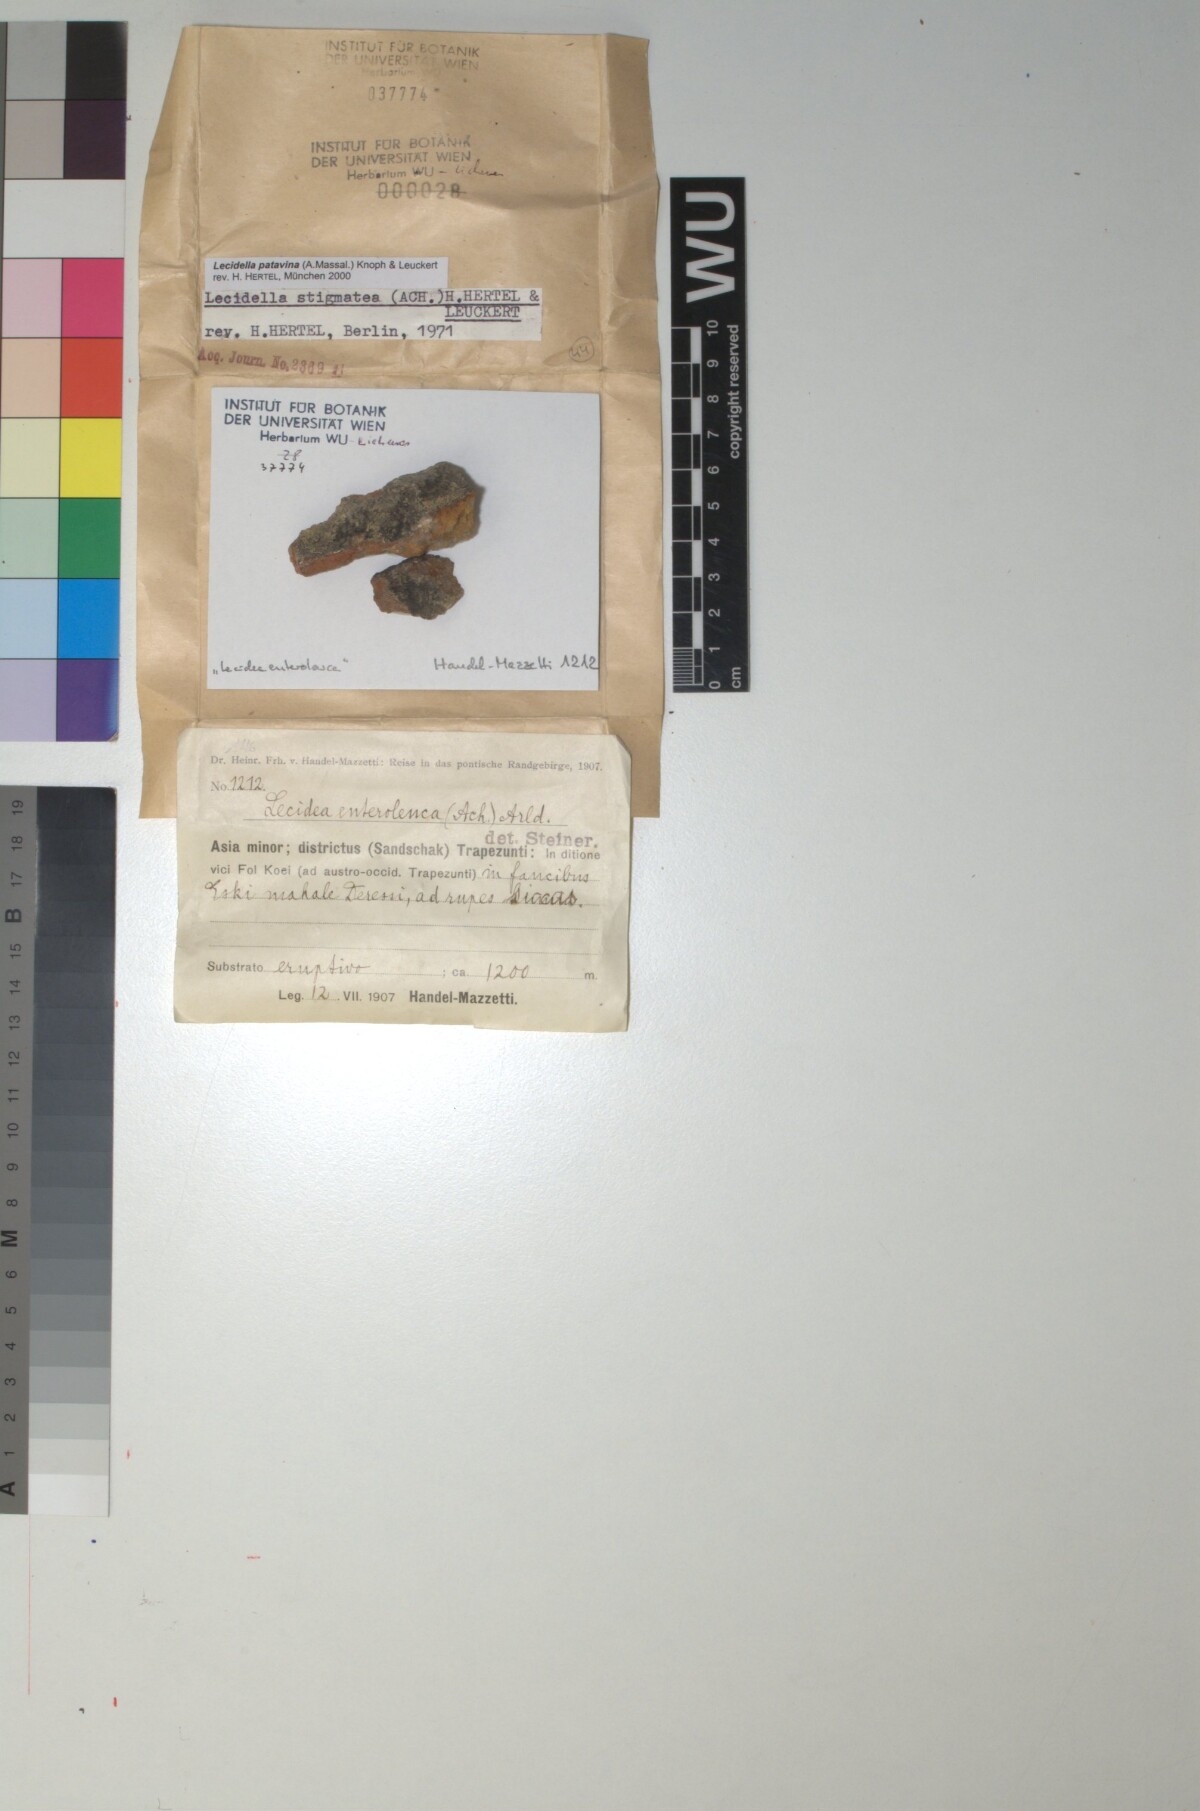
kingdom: Fungi
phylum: Ascomycota
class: Lecanoromycetes
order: Lecanorales
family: Lecanoraceae
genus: Lecidella
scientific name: Lecidella patavina
